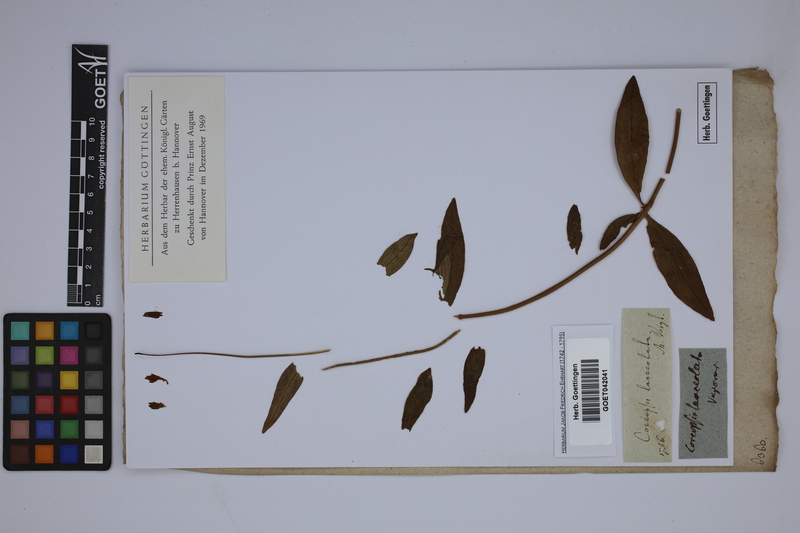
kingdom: Plantae
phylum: Tracheophyta
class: Magnoliopsida
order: Asterales
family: Asteraceae
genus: Coreopsis
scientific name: Coreopsis lanceolata
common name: Garden coreopsis
